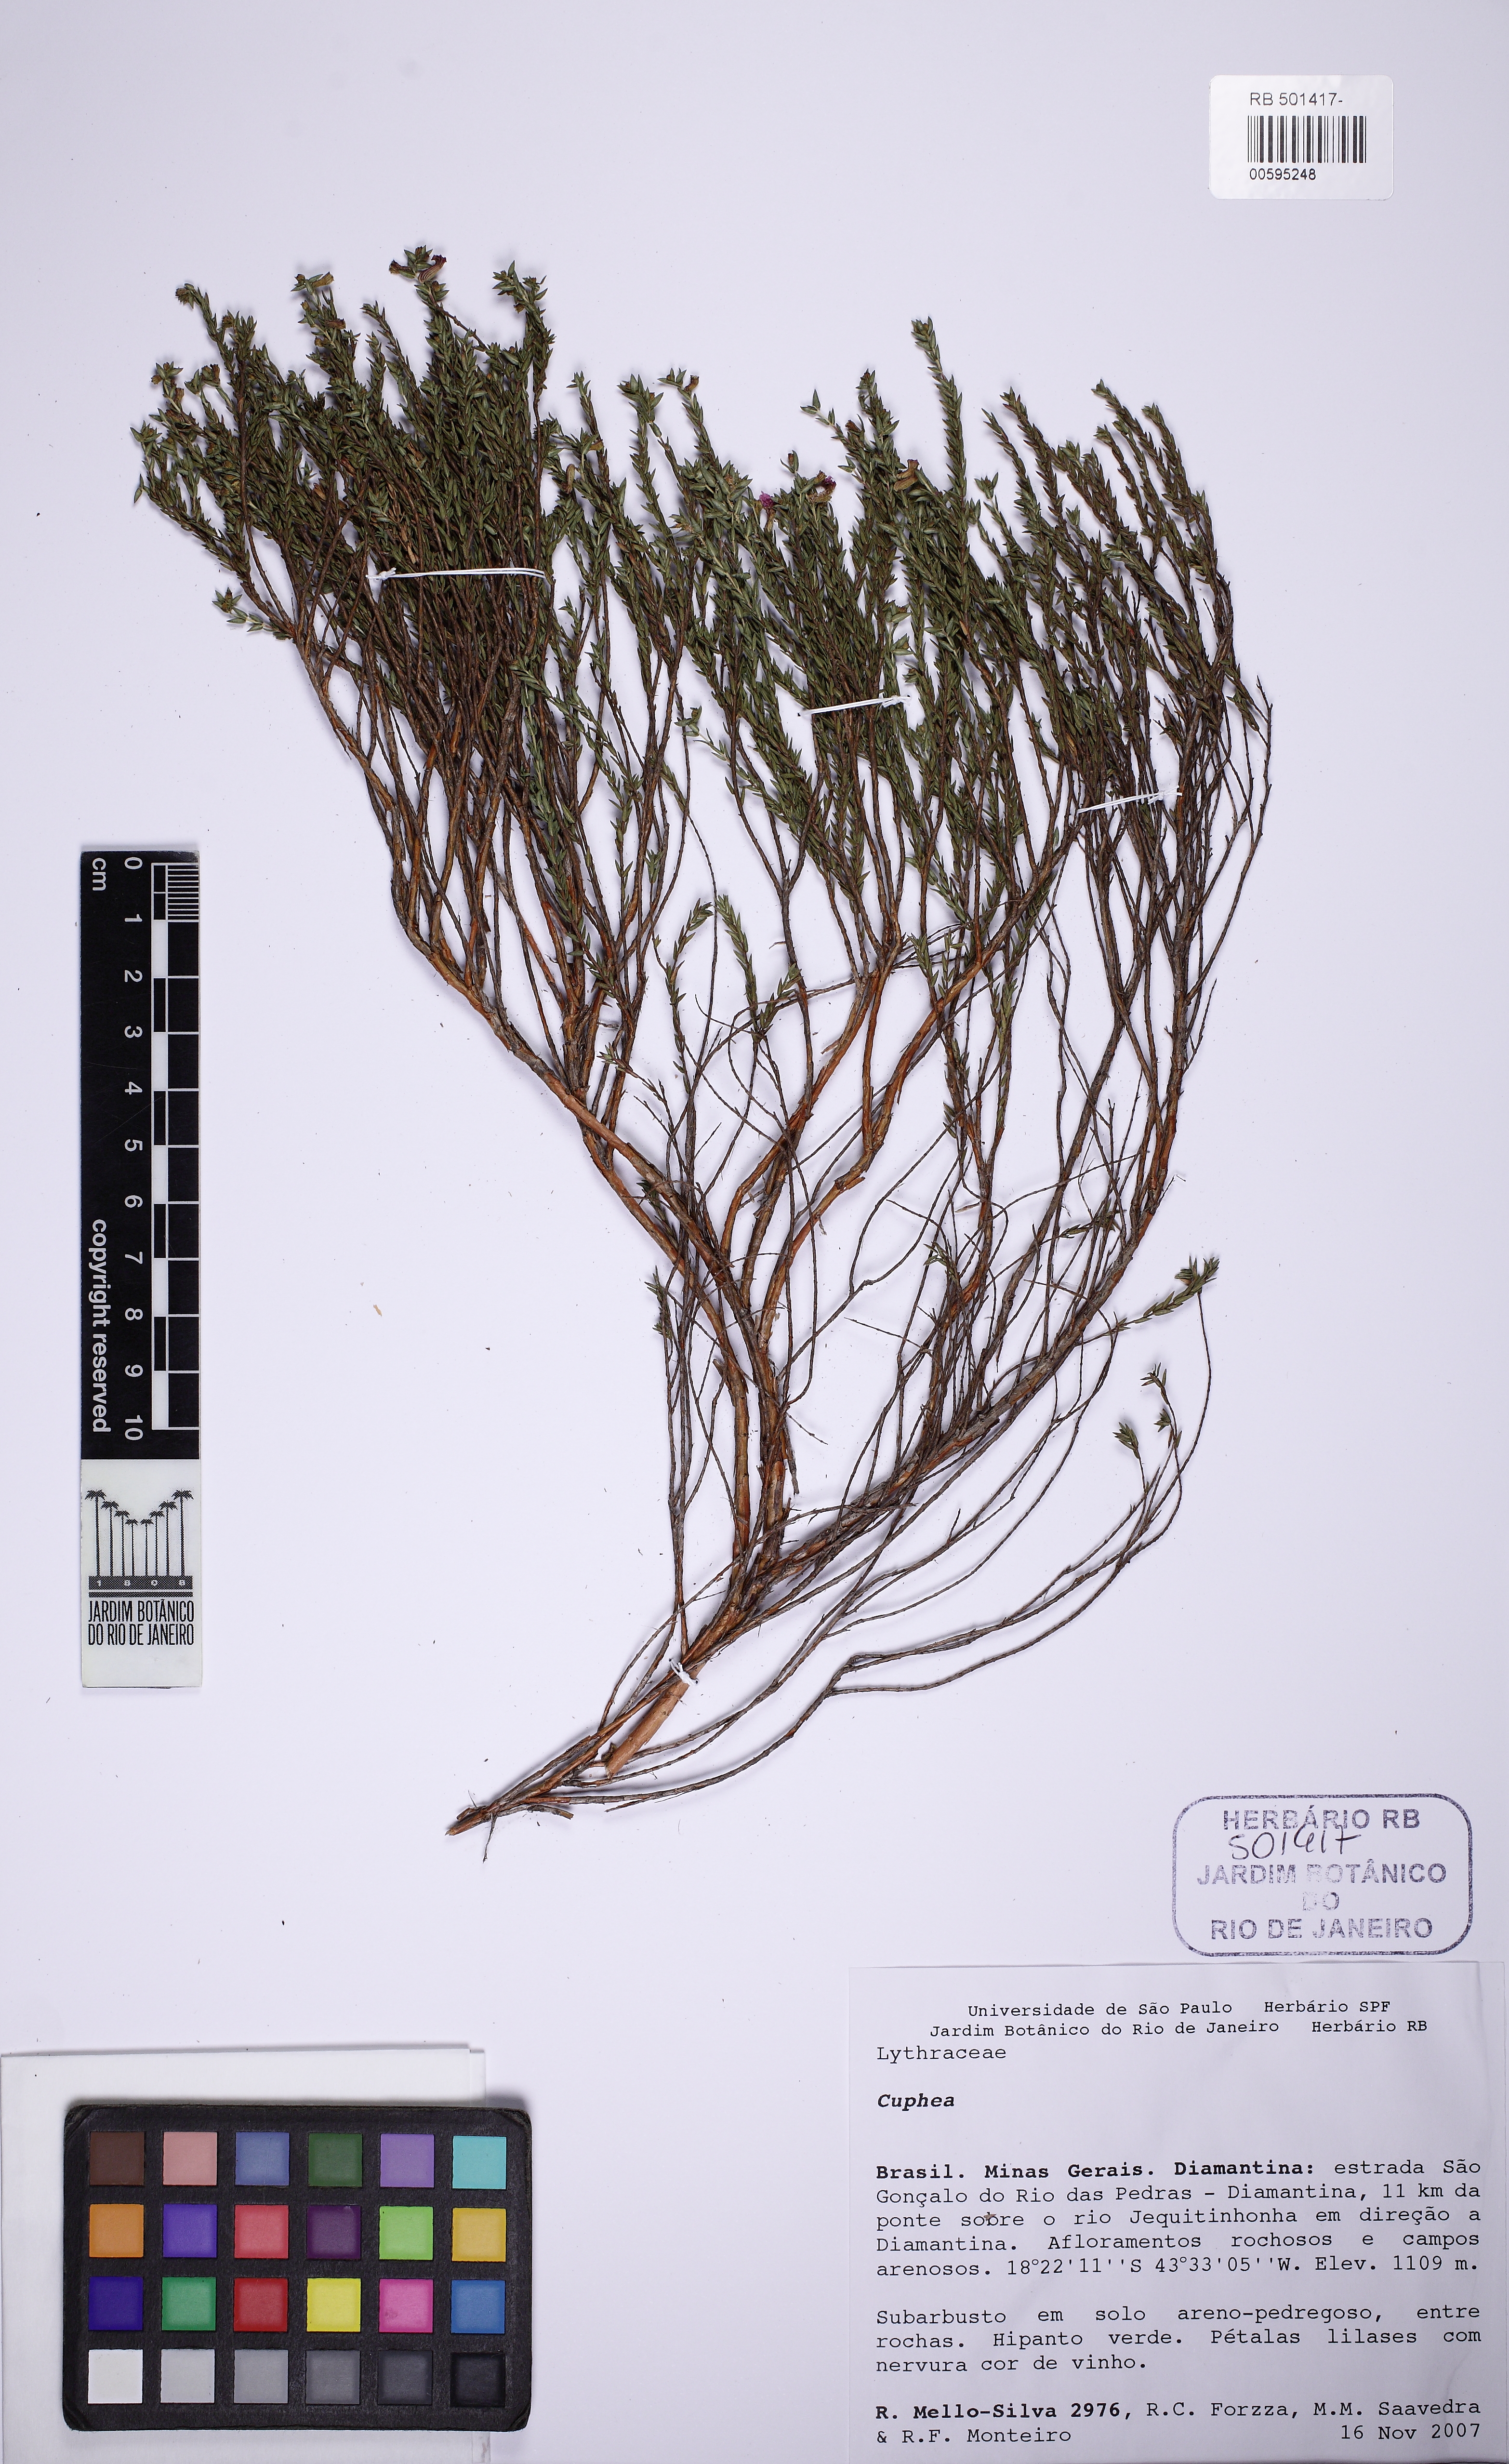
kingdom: Plantae
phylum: Tracheophyta
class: Magnoliopsida
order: Myrtales
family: Lythraceae
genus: Cuphea
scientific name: Cuphea diosmifolia
